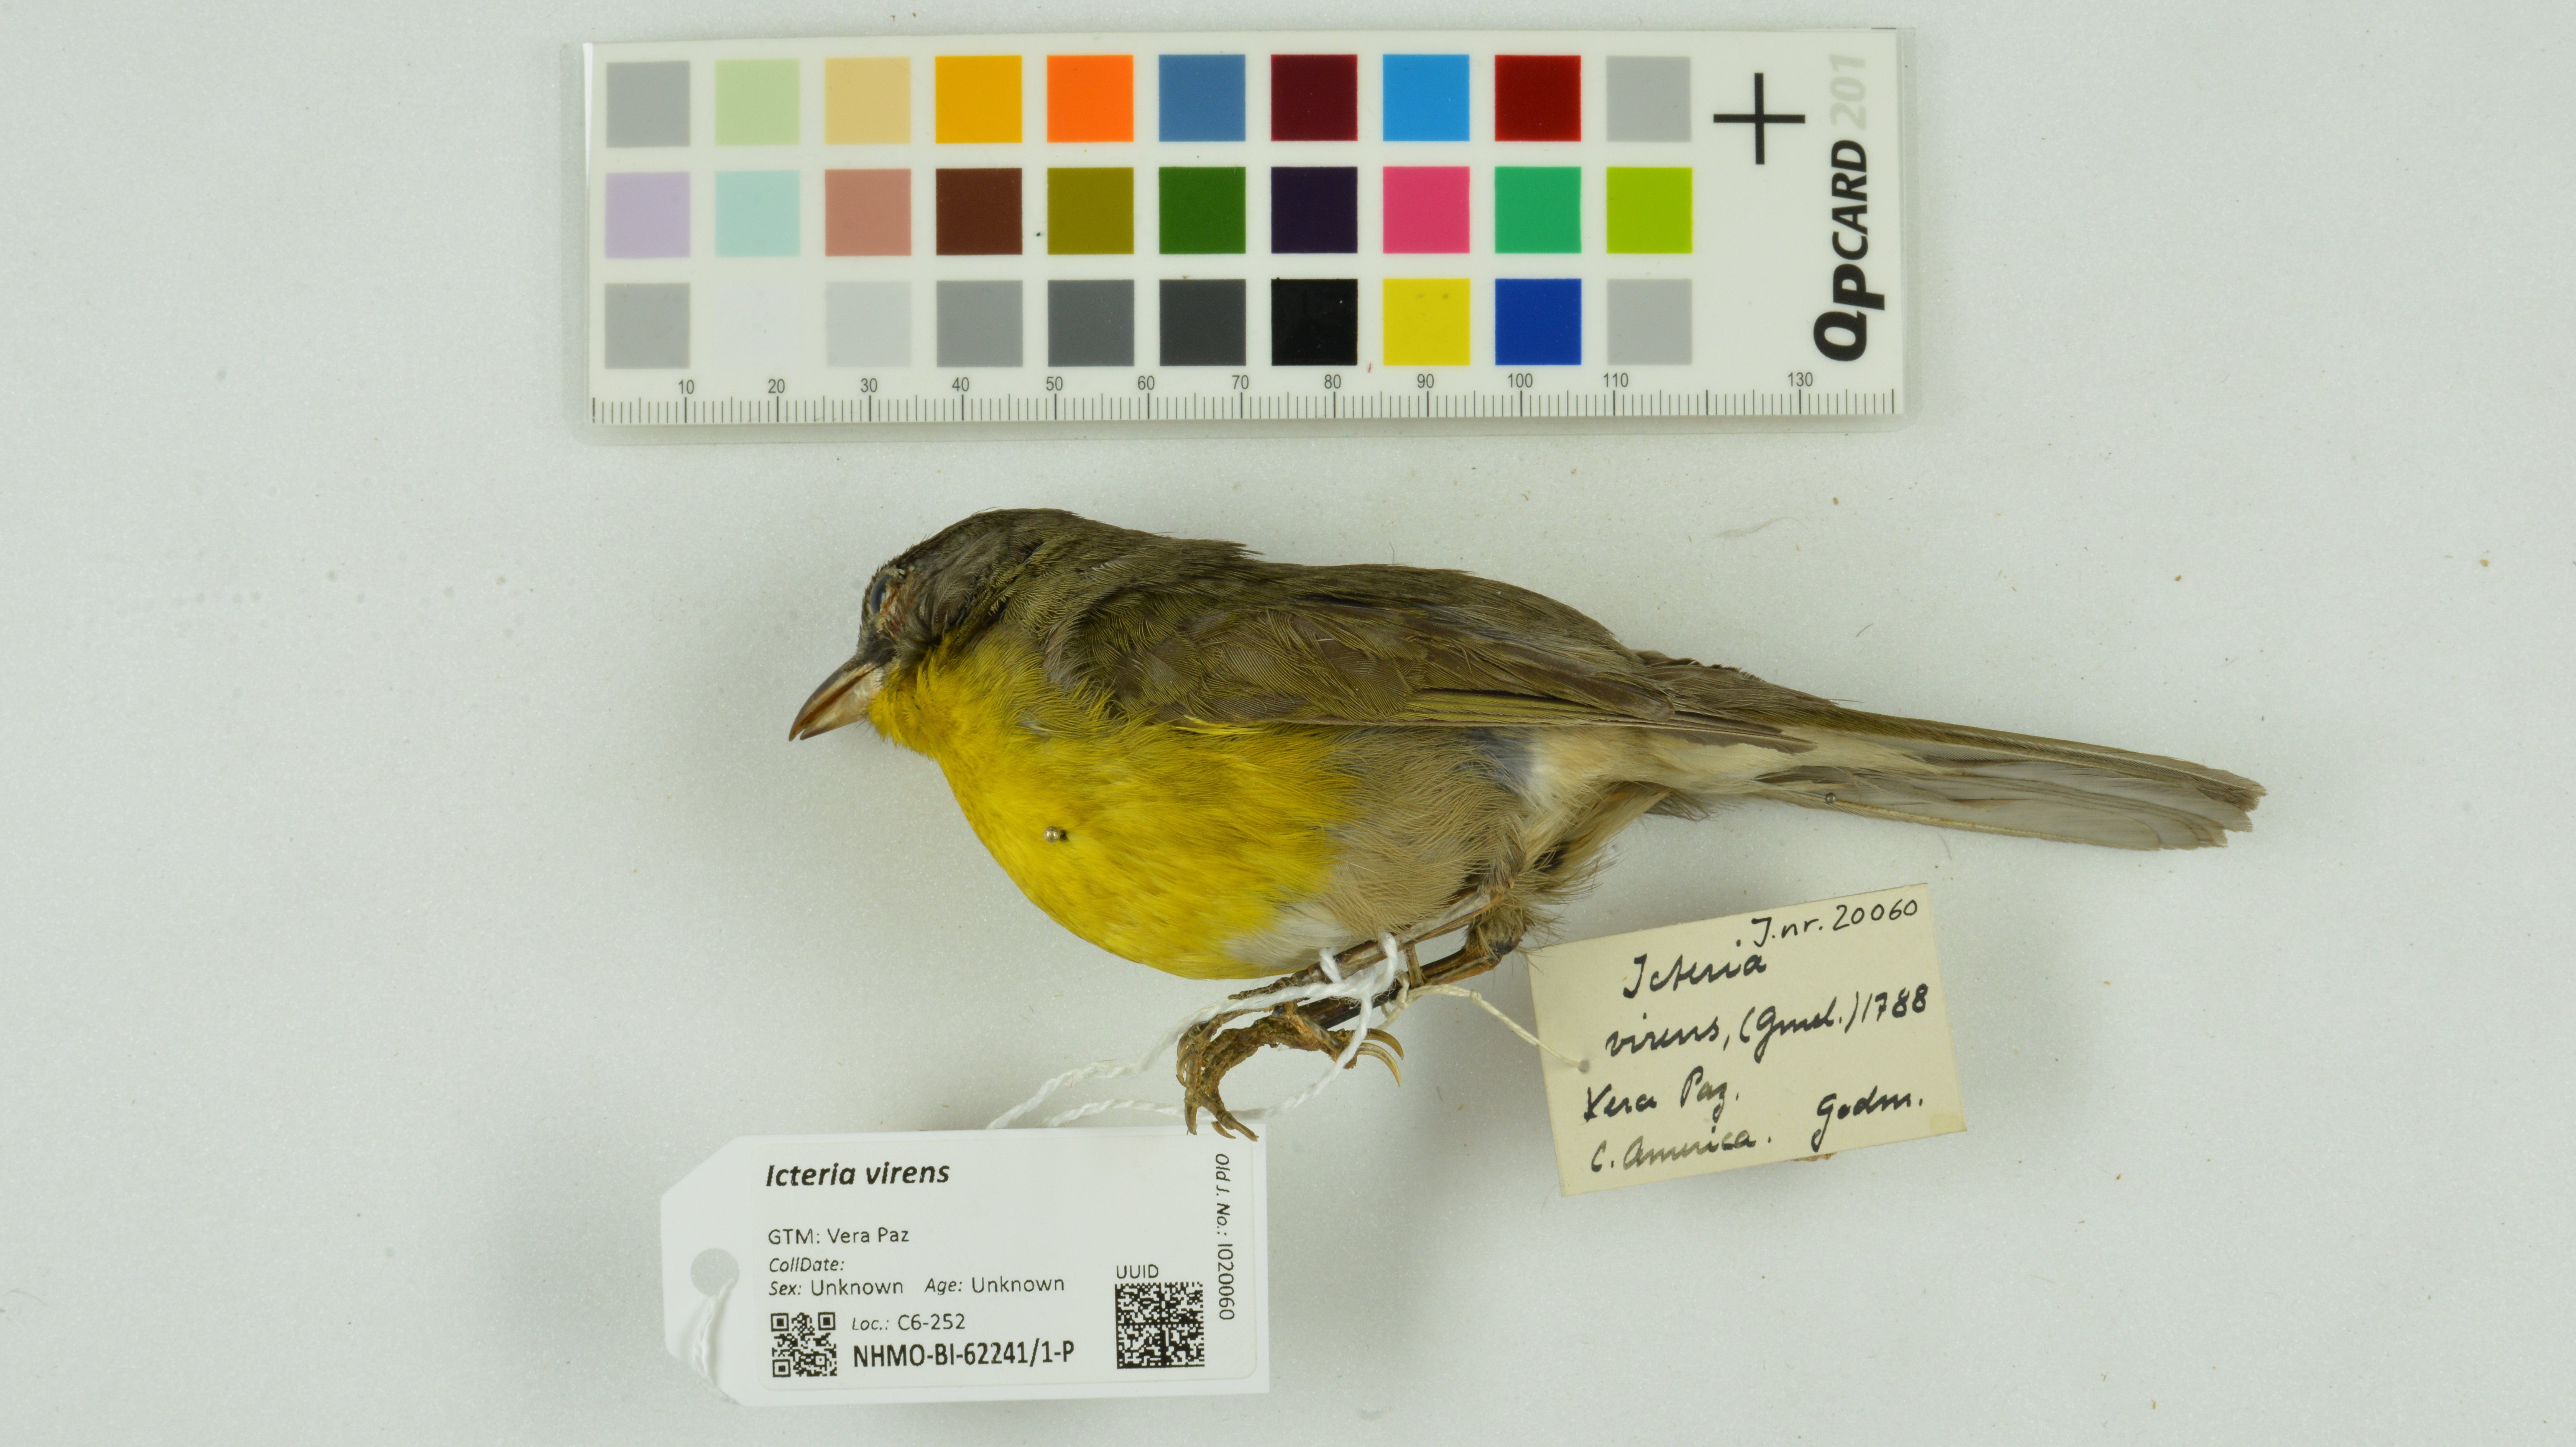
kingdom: Animalia
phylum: Chordata
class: Aves
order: Passeriformes
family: Parulidae
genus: Icteria
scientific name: Icteria virens
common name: Yellow-breasted chat
